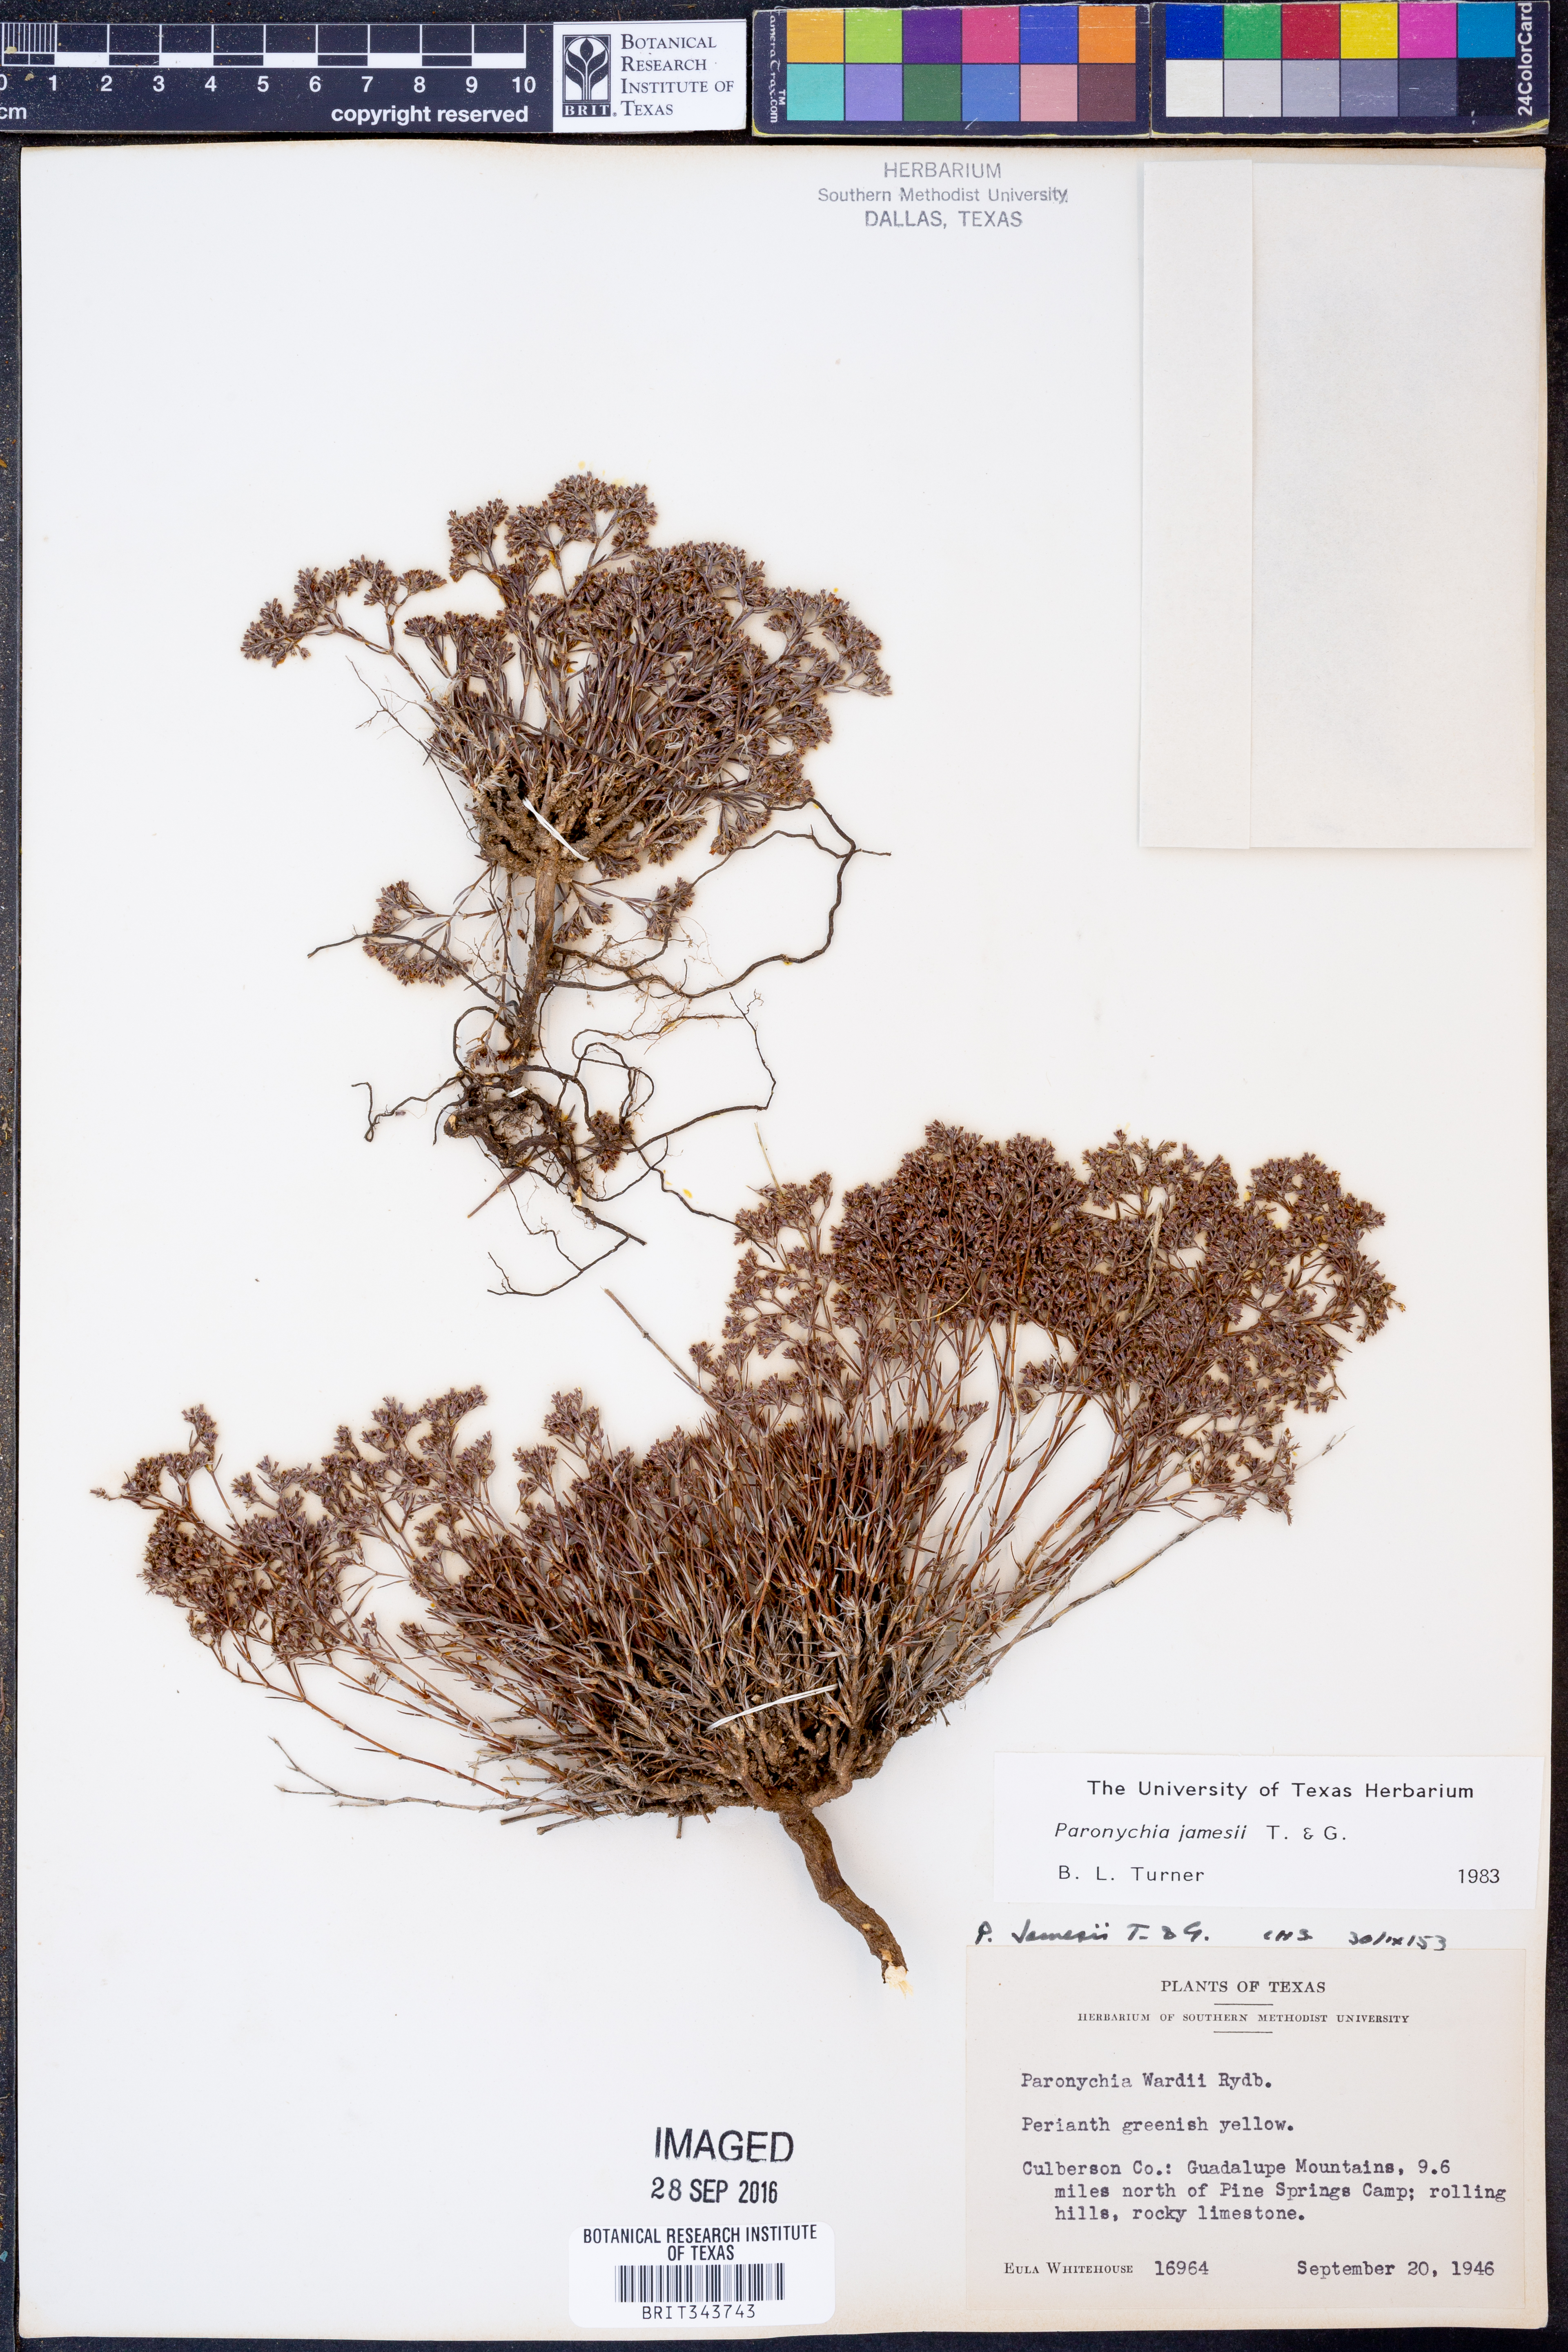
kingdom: Plantae
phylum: Tracheophyta
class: Magnoliopsida
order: Caryophyllales
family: Caryophyllaceae
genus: Paronychia
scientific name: Paronychia jamesii
